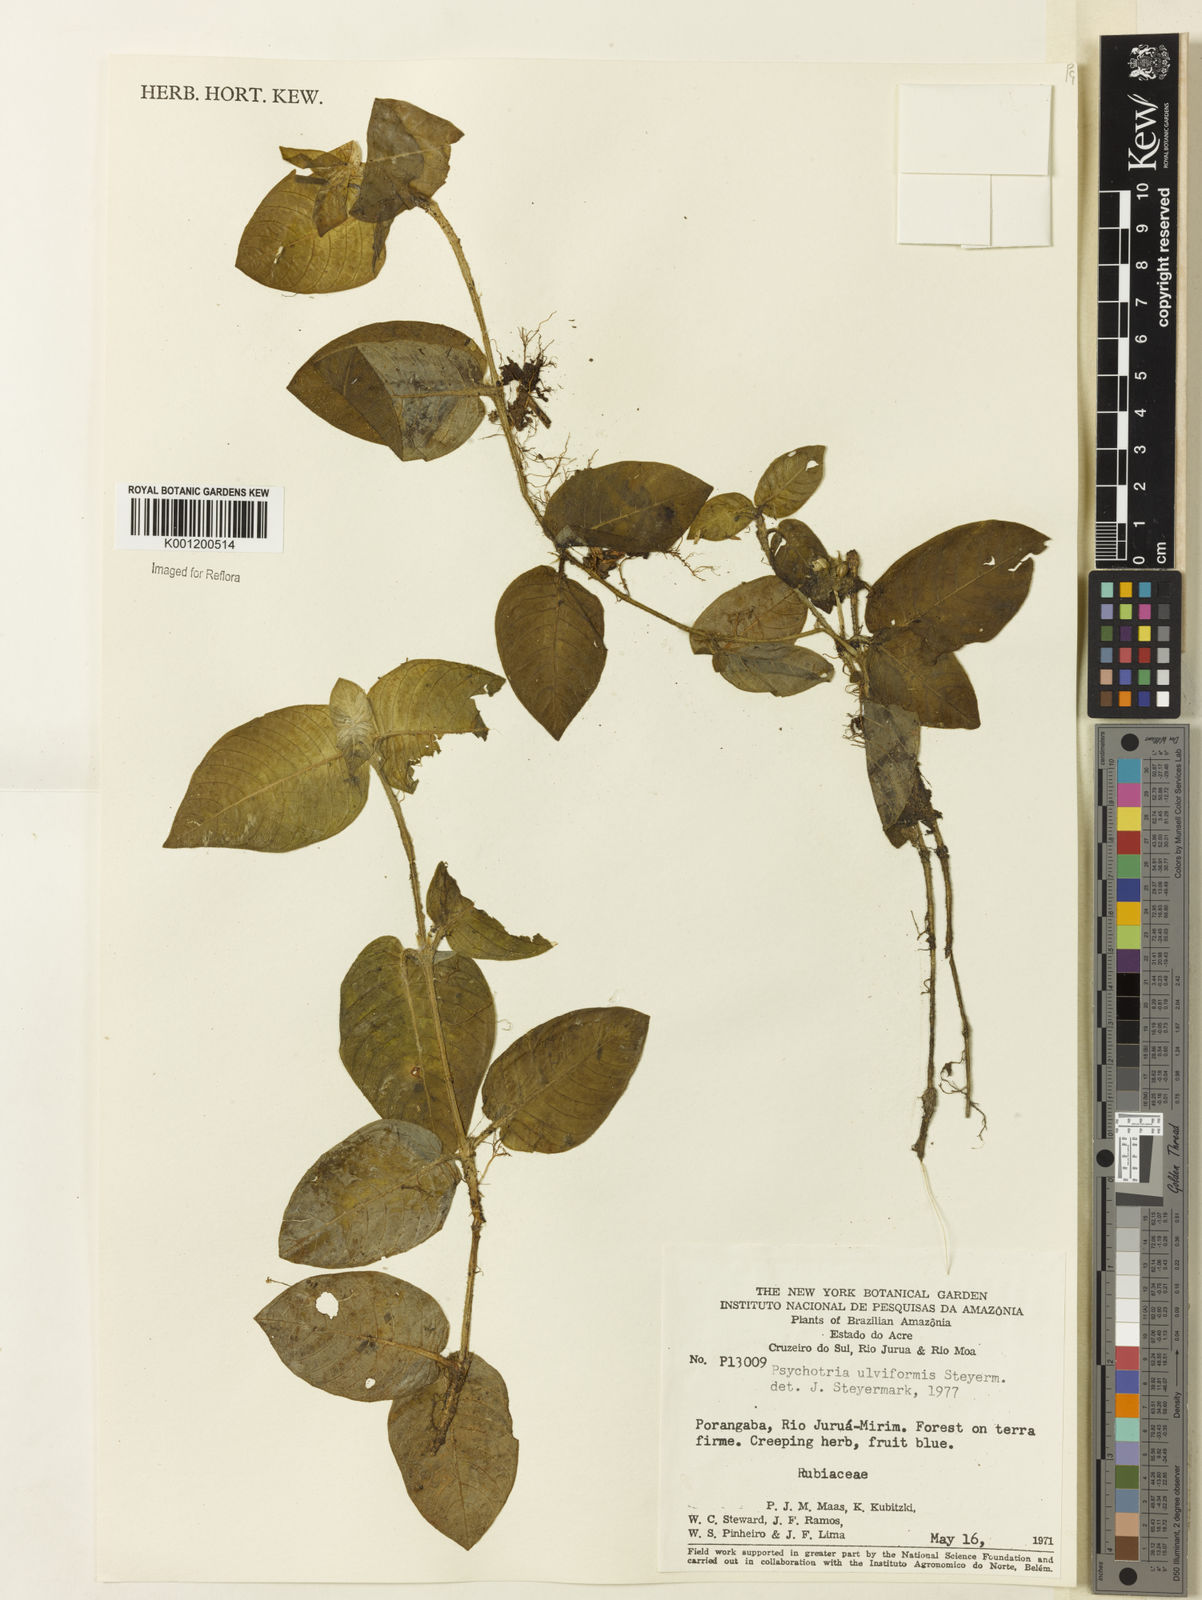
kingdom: Plantae
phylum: Tracheophyta
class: Magnoliopsida
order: Gentianales
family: Rubiaceae
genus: Palicourea
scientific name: Palicourea alba
